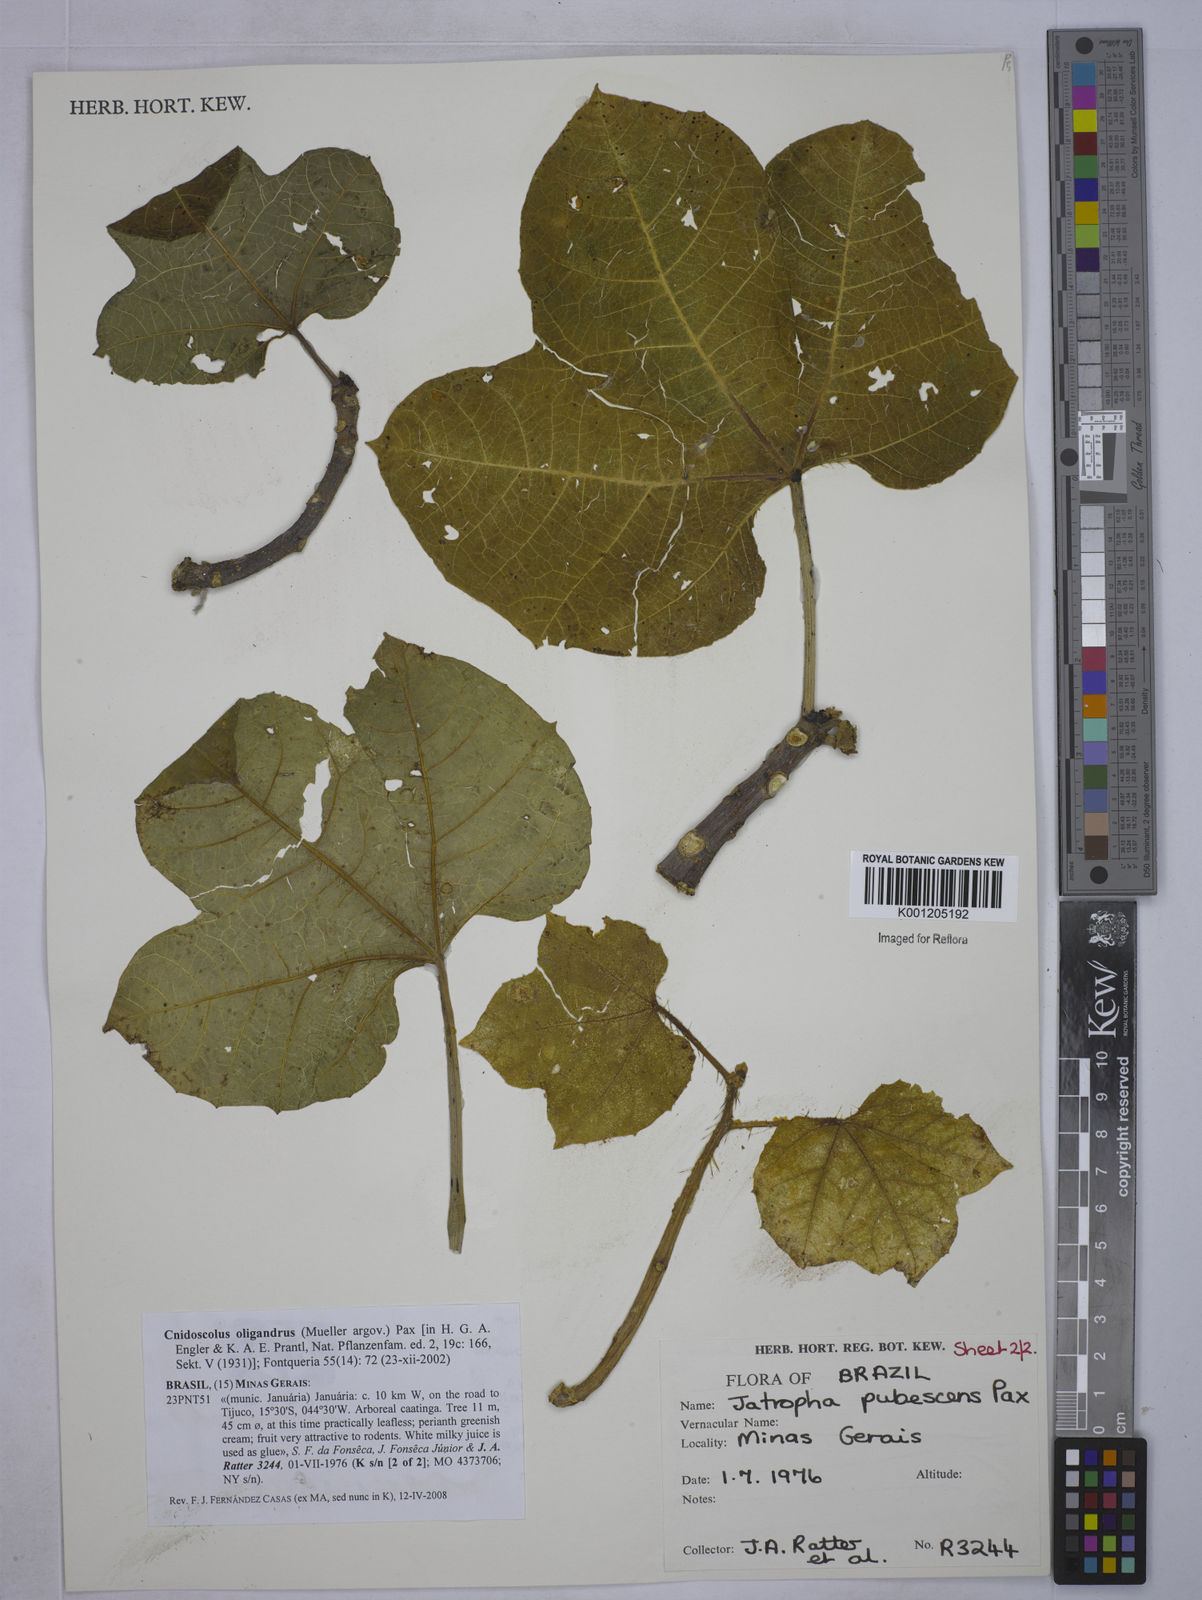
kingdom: Plantae
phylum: Tracheophyta
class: Magnoliopsida
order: Malpighiales
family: Euphorbiaceae
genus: Cnidoscolus
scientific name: Cnidoscolus
